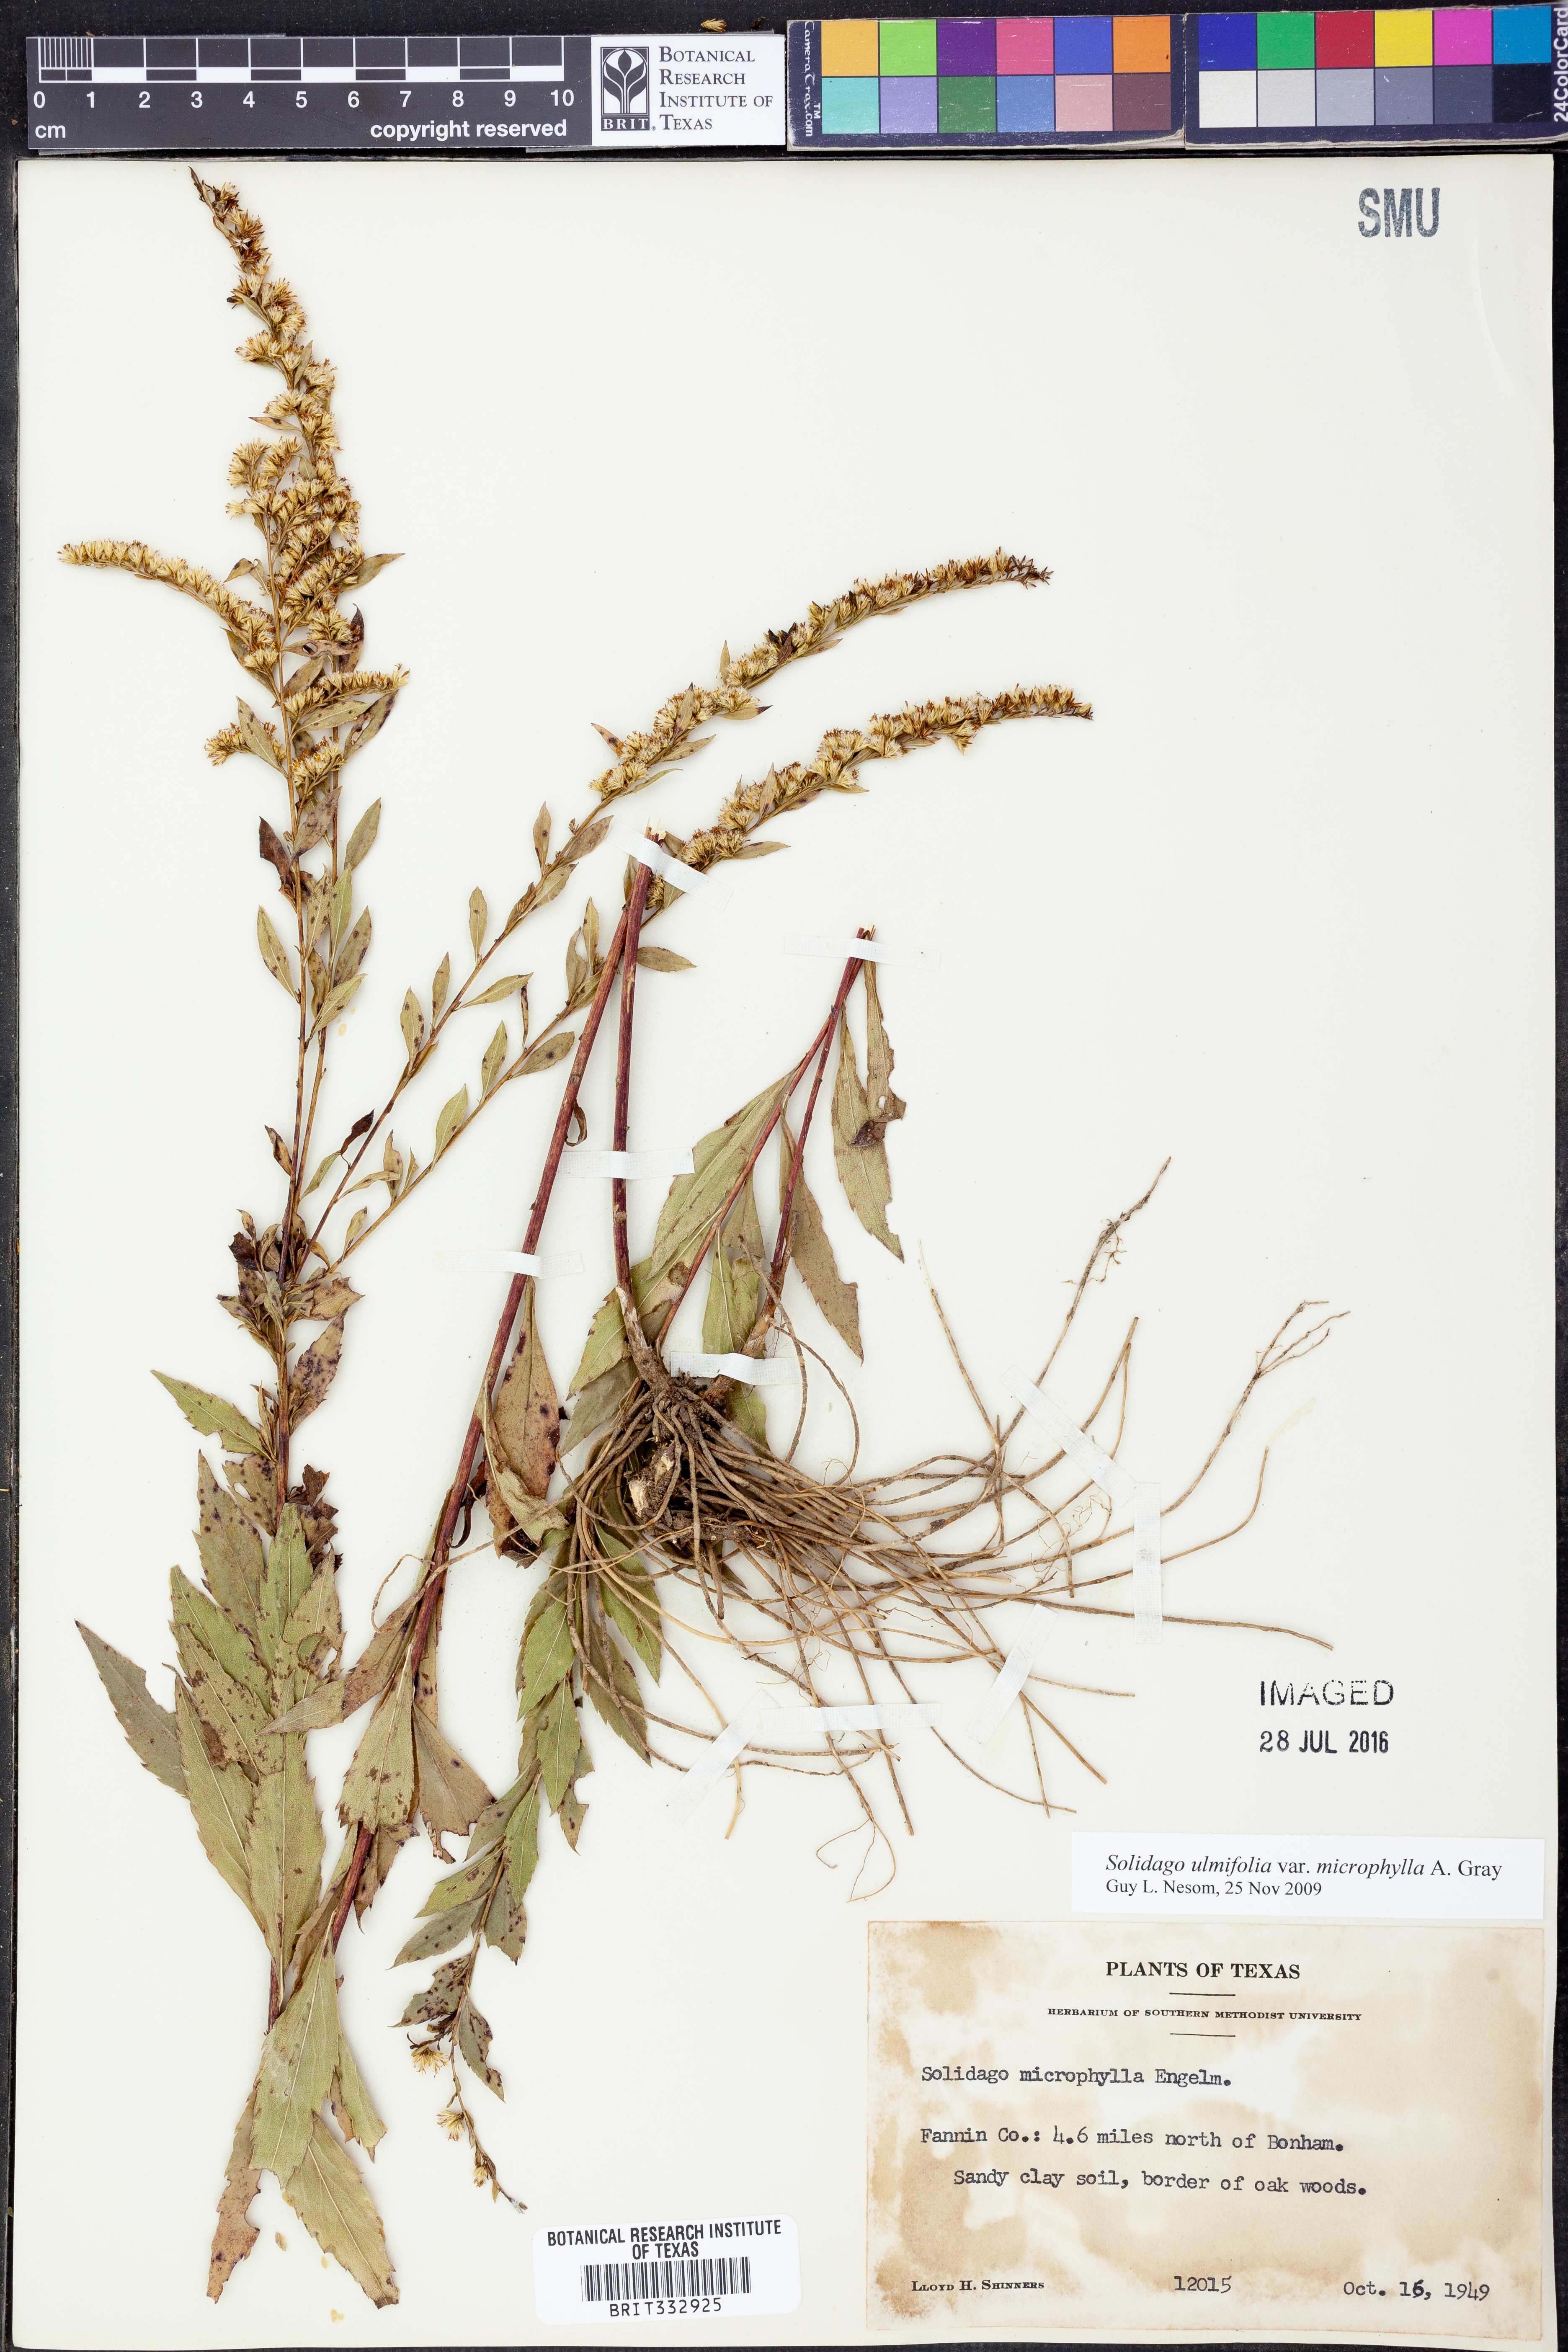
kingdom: Plantae
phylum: Tracheophyta
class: Magnoliopsida
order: Asterales
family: Asteraceae
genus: Solidago
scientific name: Solidago delicatula
